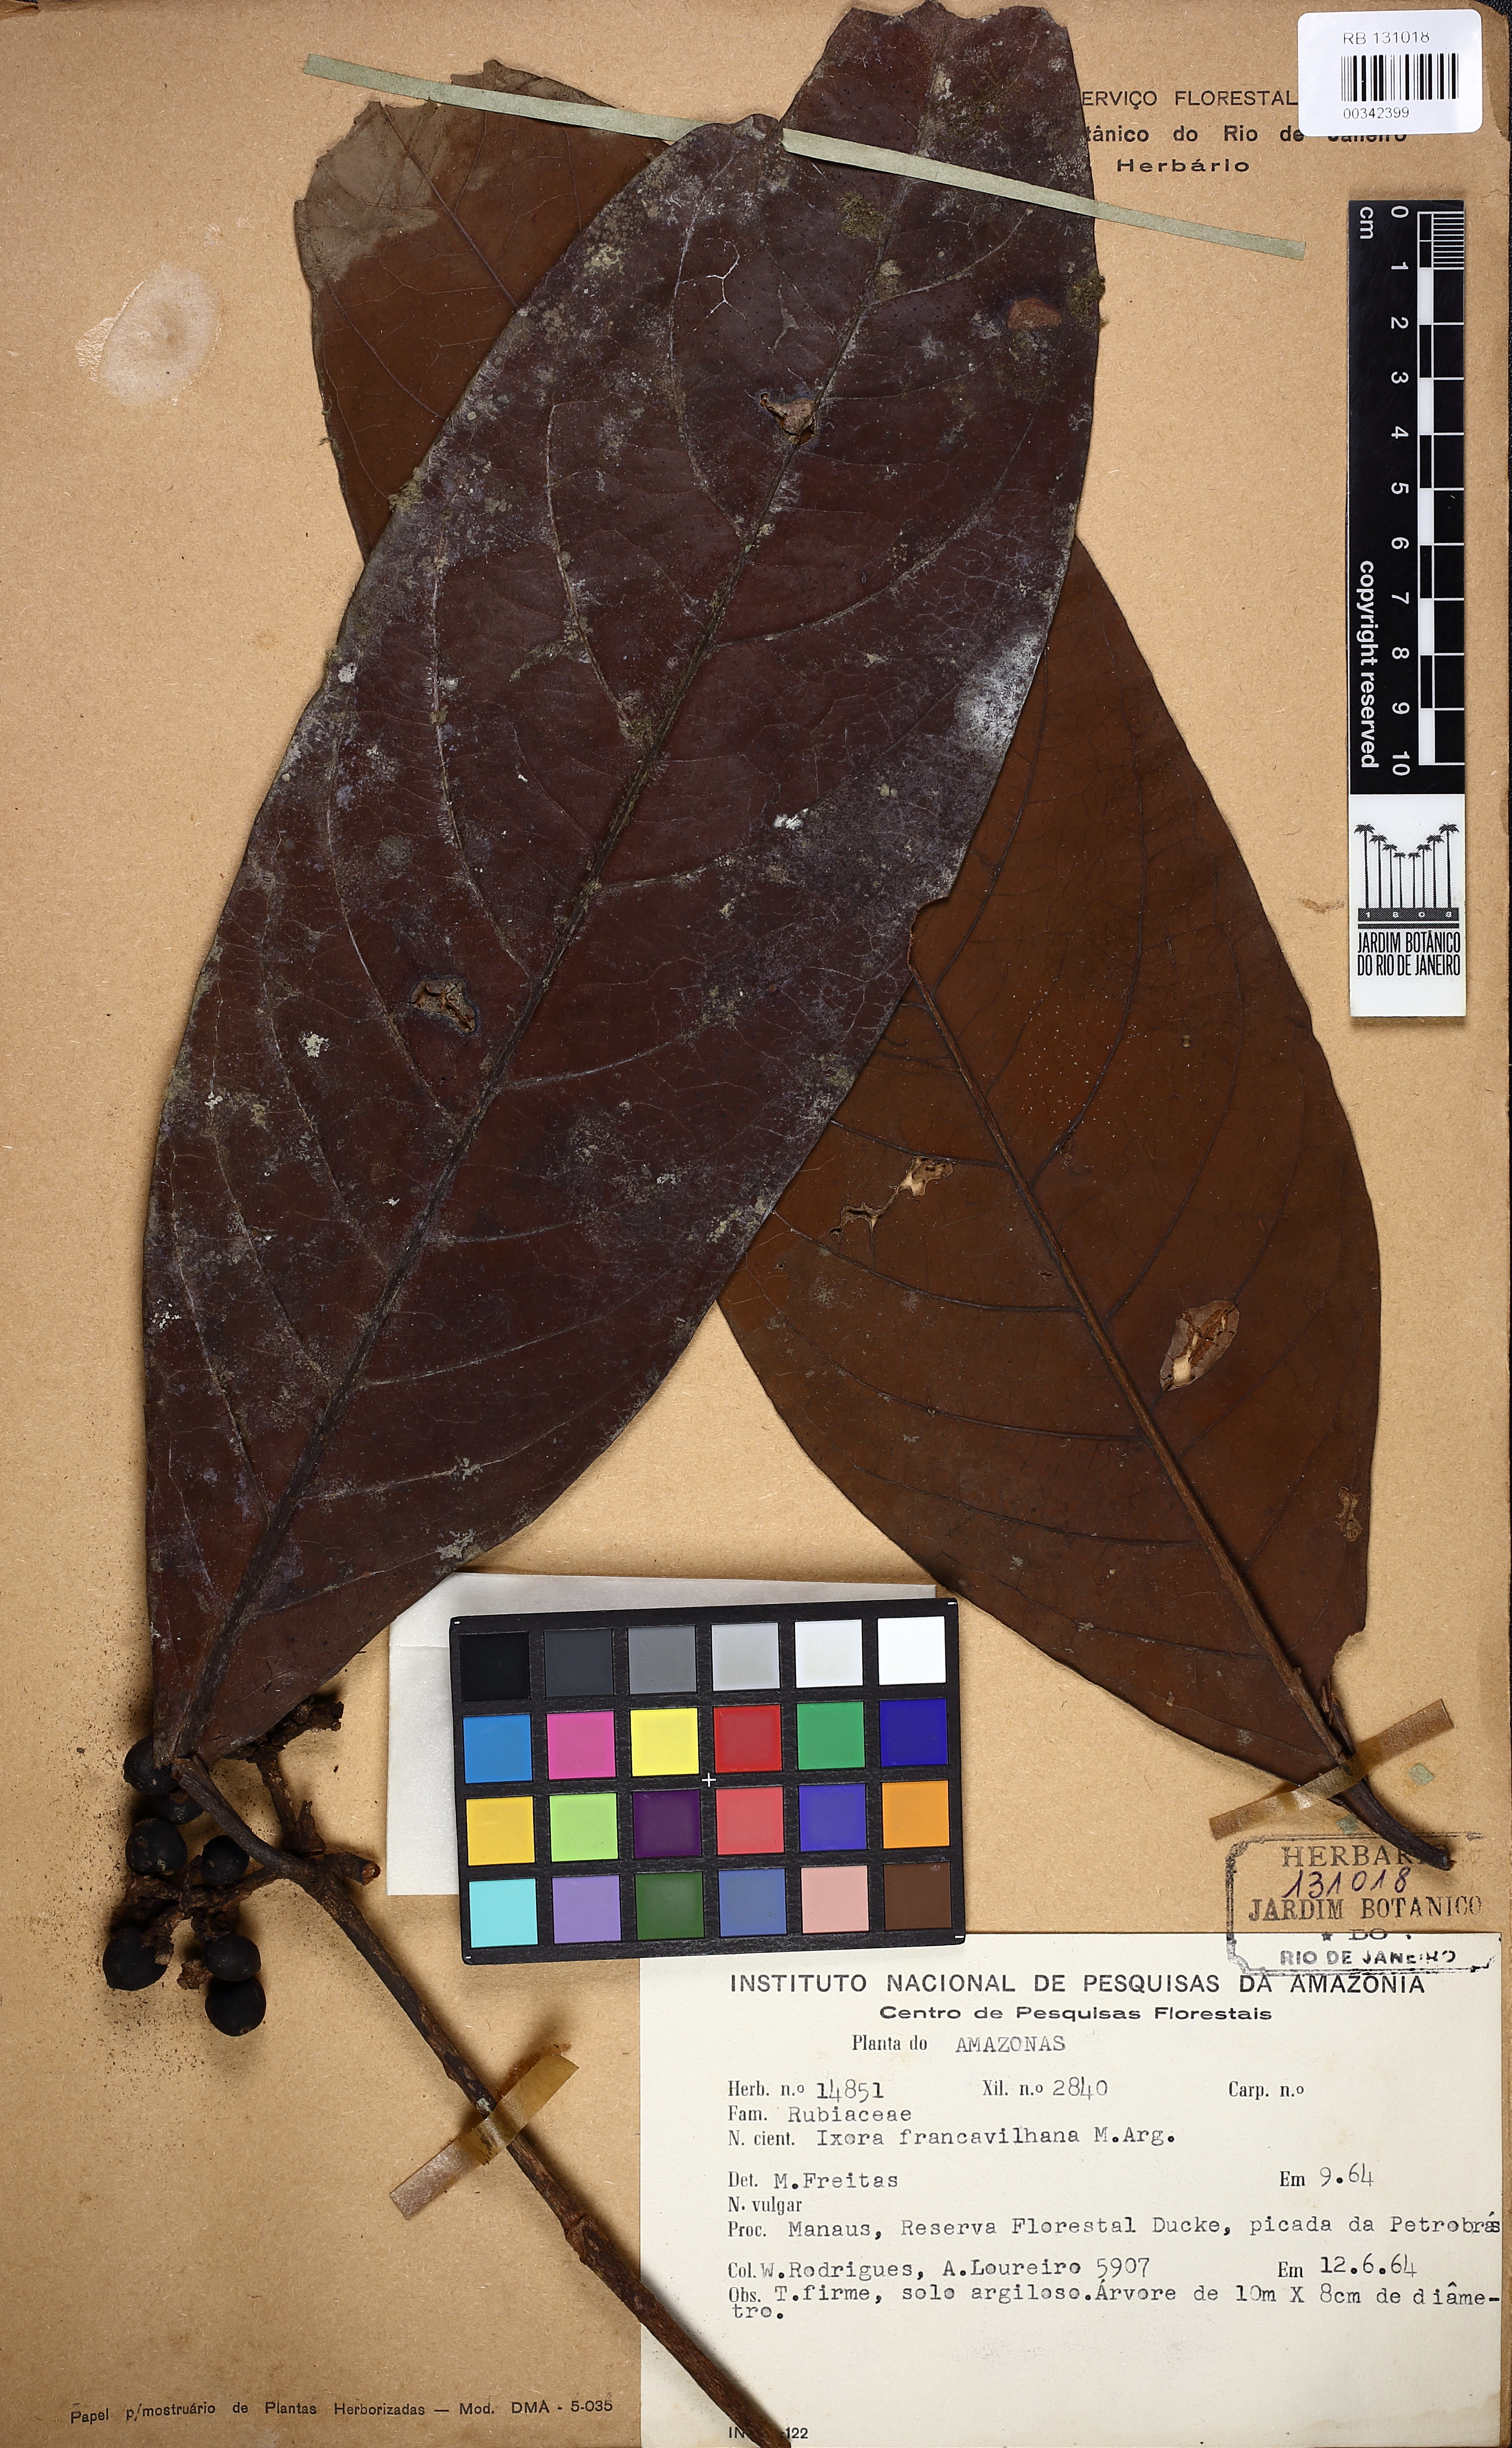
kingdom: Plantae
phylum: Tracheophyta
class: Magnoliopsida
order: Gentianales
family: Rubiaceae
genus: Ixora
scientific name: Ixora francavillana
